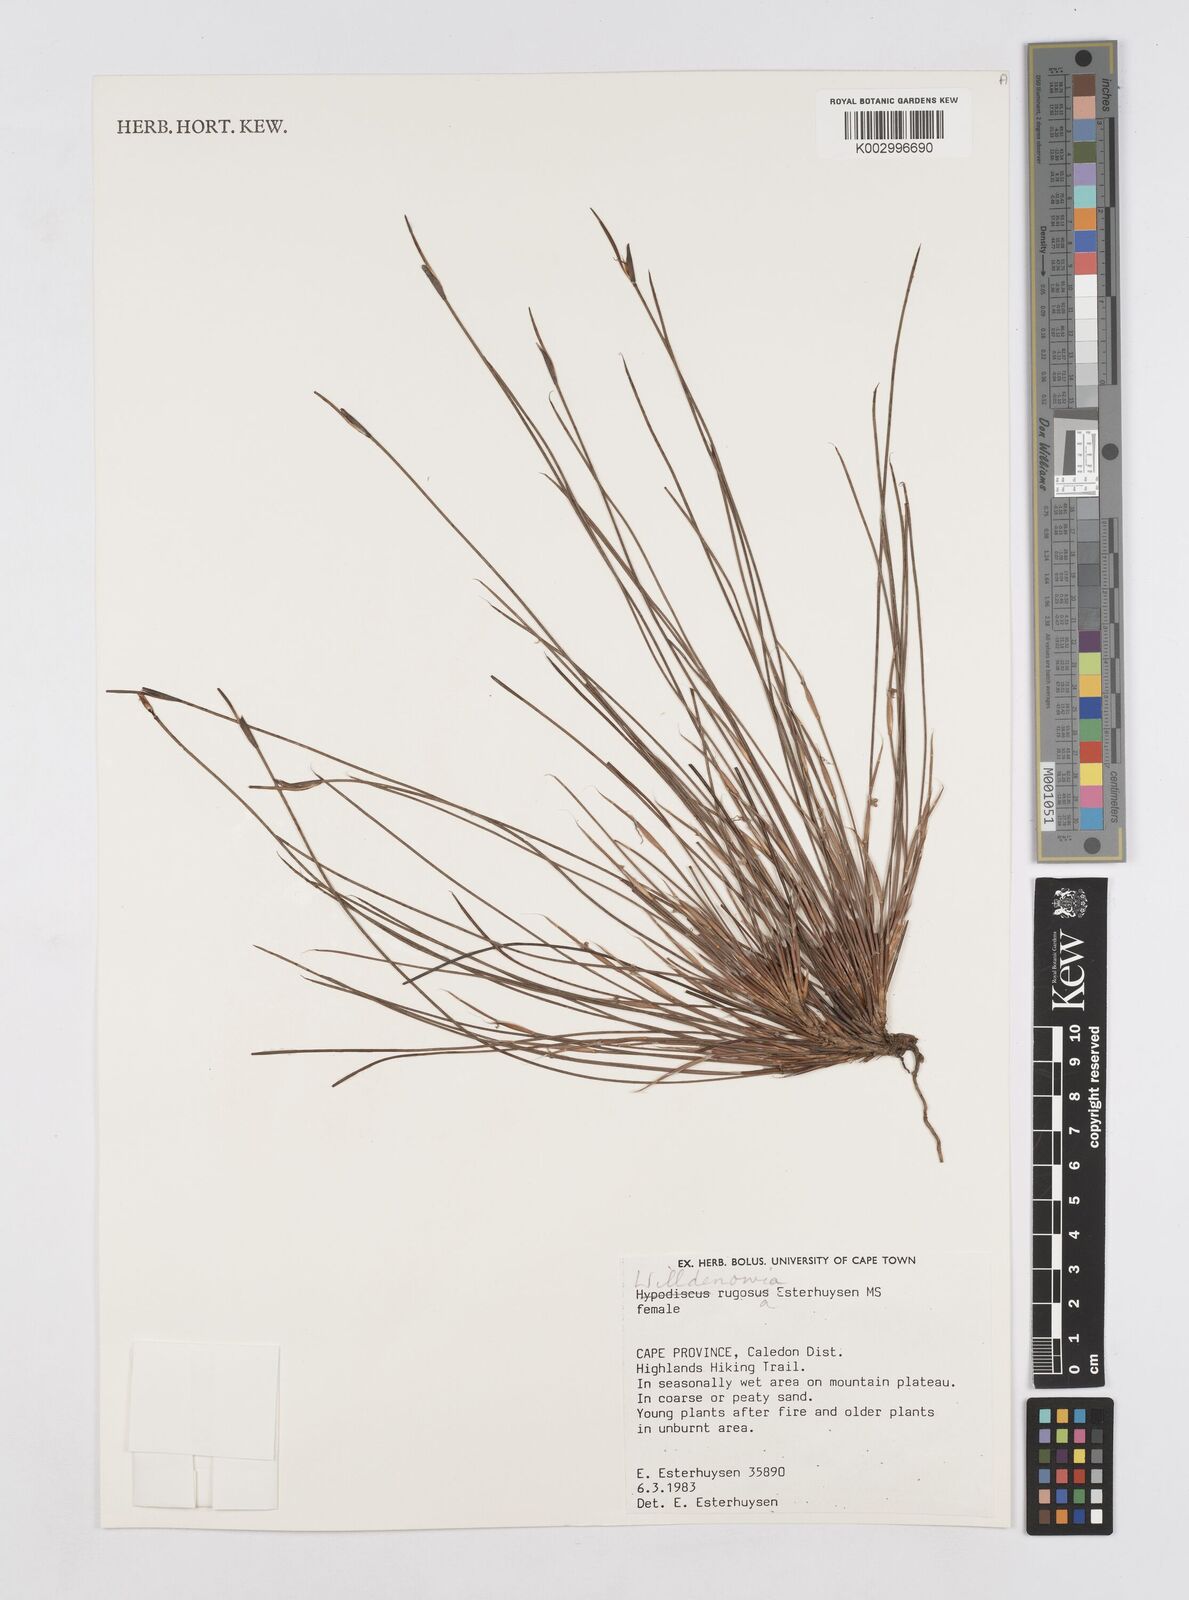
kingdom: Plantae
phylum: Tracheophyta
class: Liliopsida
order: Poales
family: Restionaceae
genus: Willdenowia
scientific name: Willdenowia glomerata
